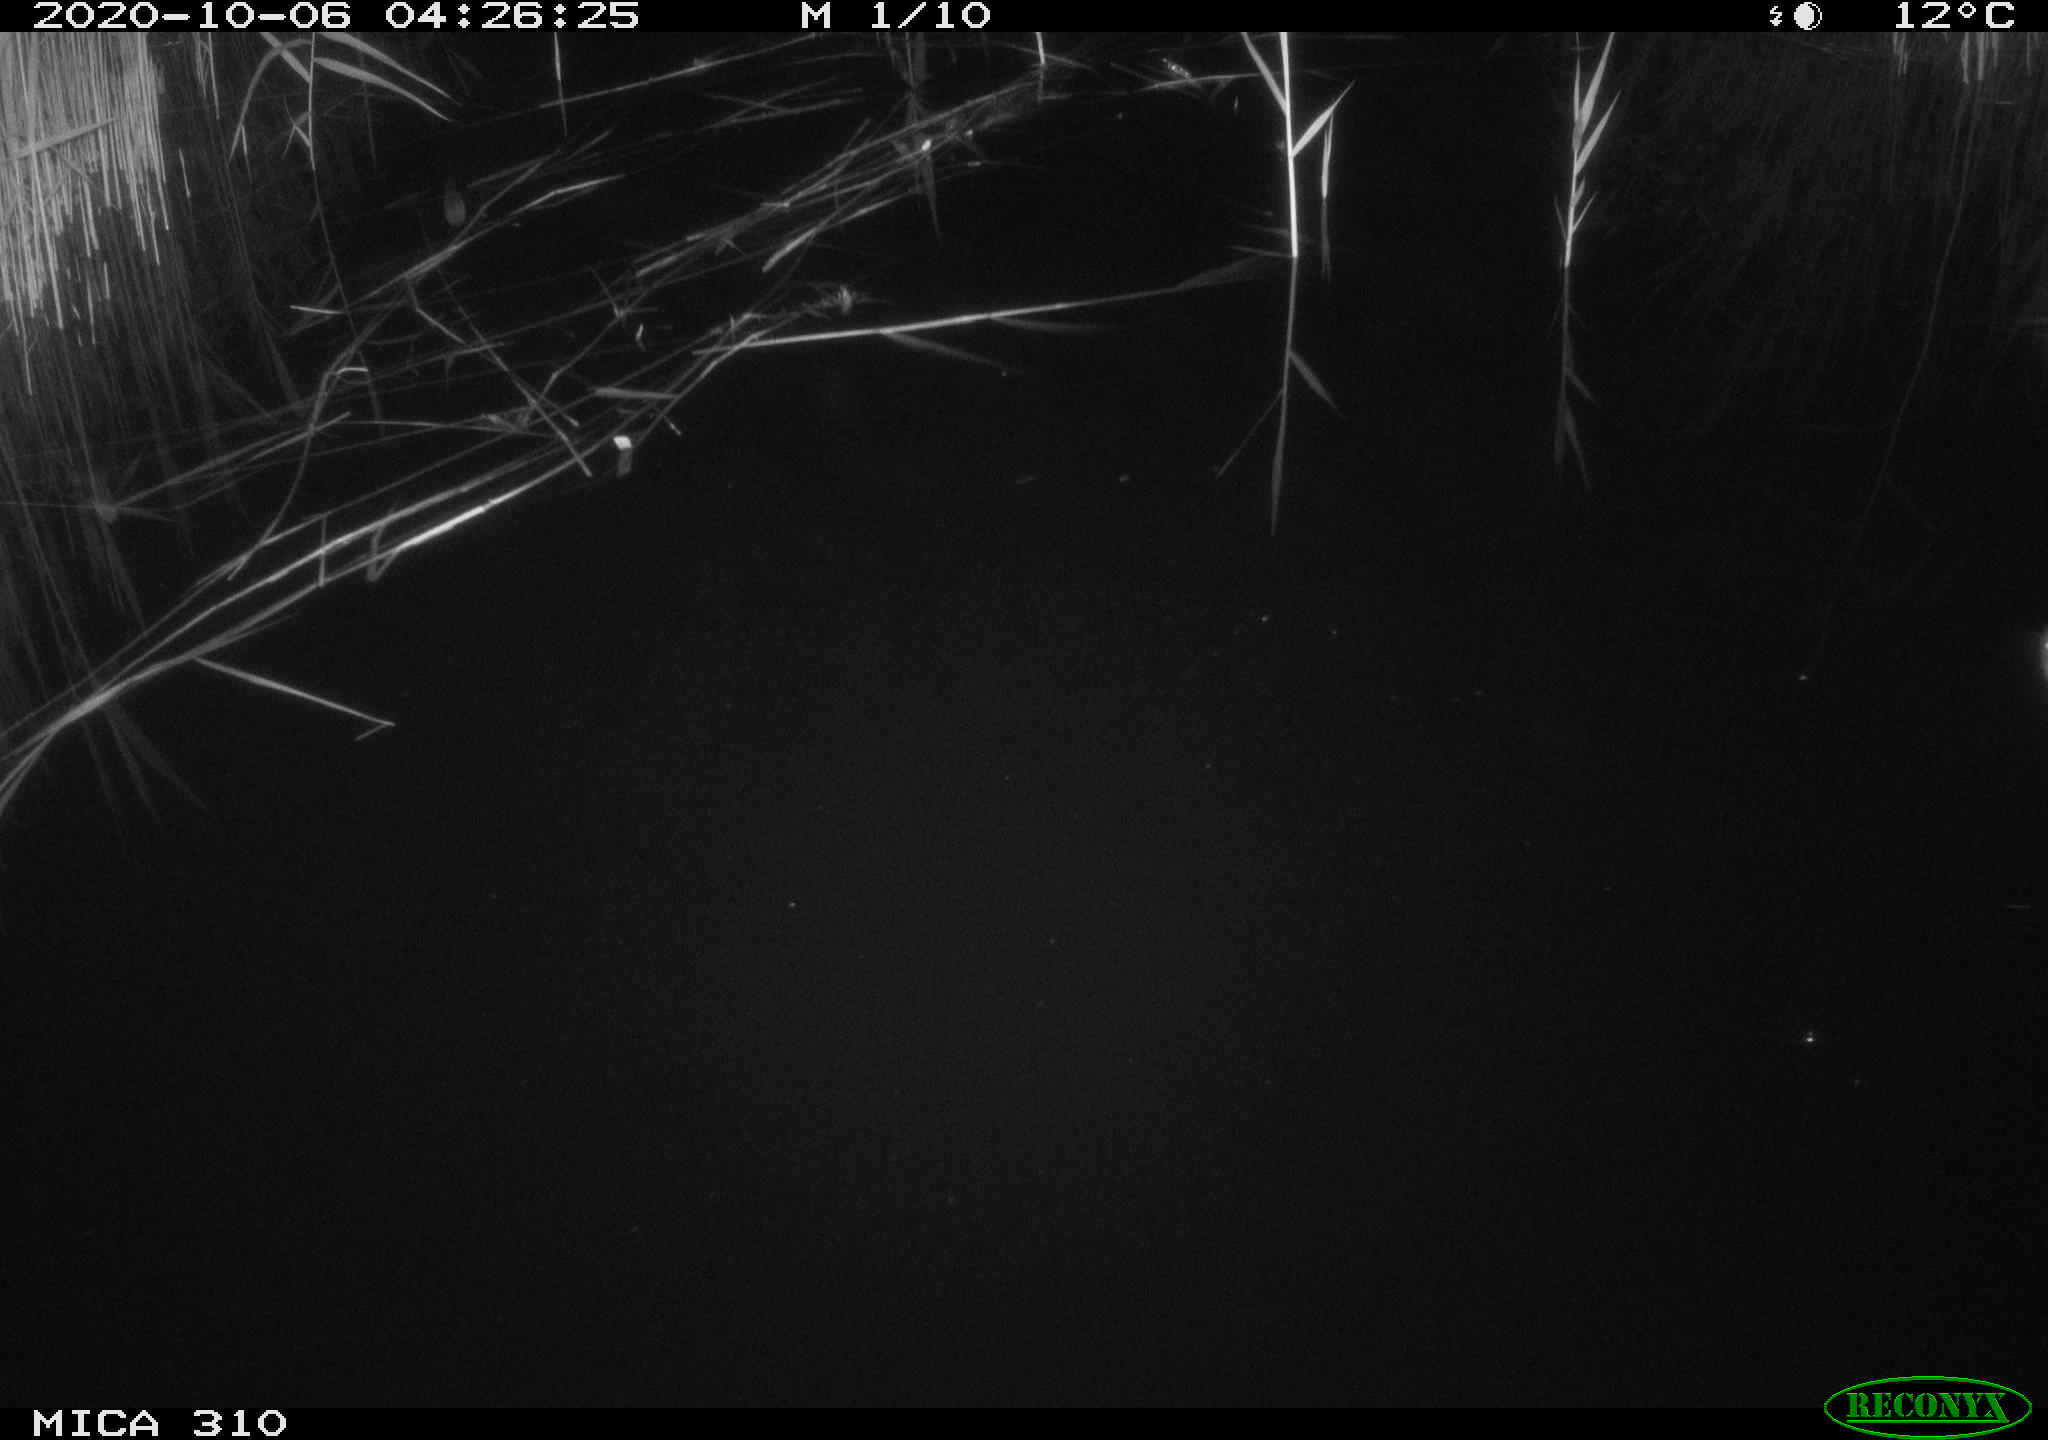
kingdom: Animalia
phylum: Chordata
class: Mammalia
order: Rodentia
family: Muridae
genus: Rattus
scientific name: Rattus norvegicus
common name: Brown rat
